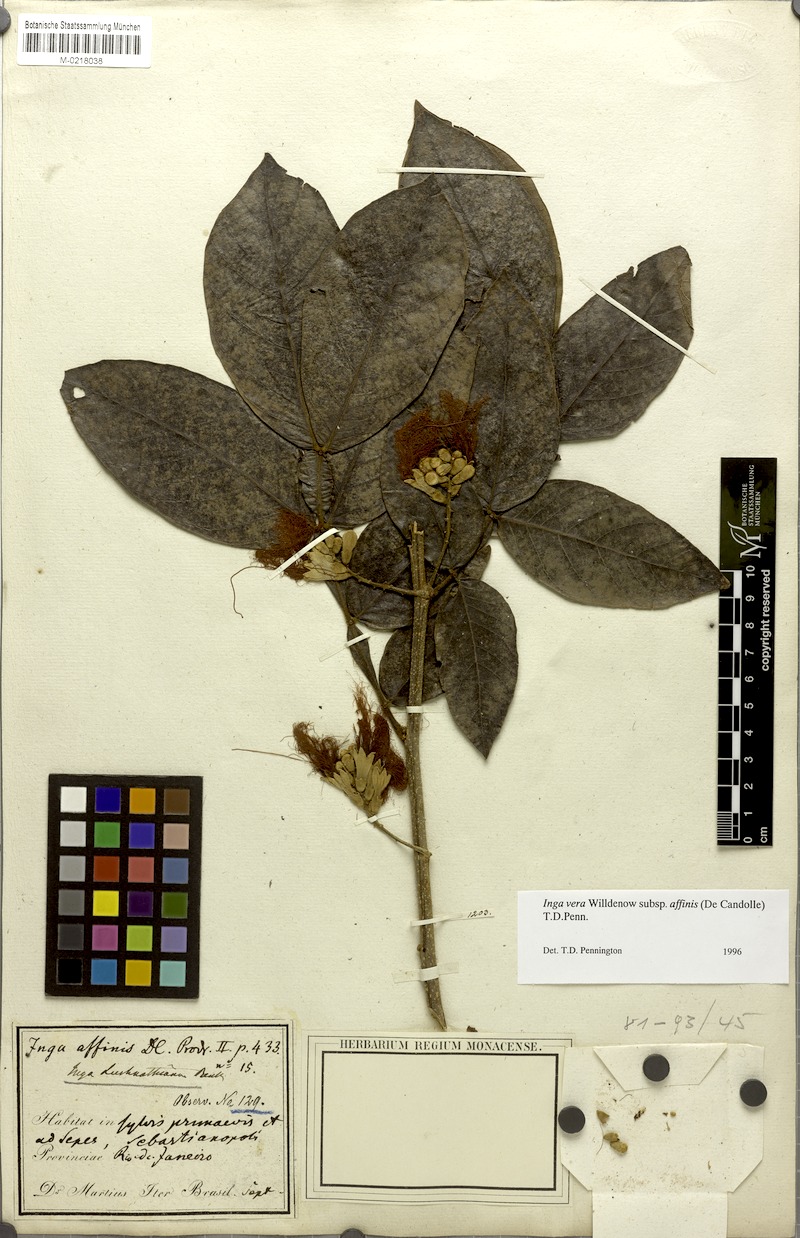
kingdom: Plantae
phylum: Tracheophyta
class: Magnoliopsida
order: Fabales
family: Fabaceae
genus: Inga
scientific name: Inga affinis
